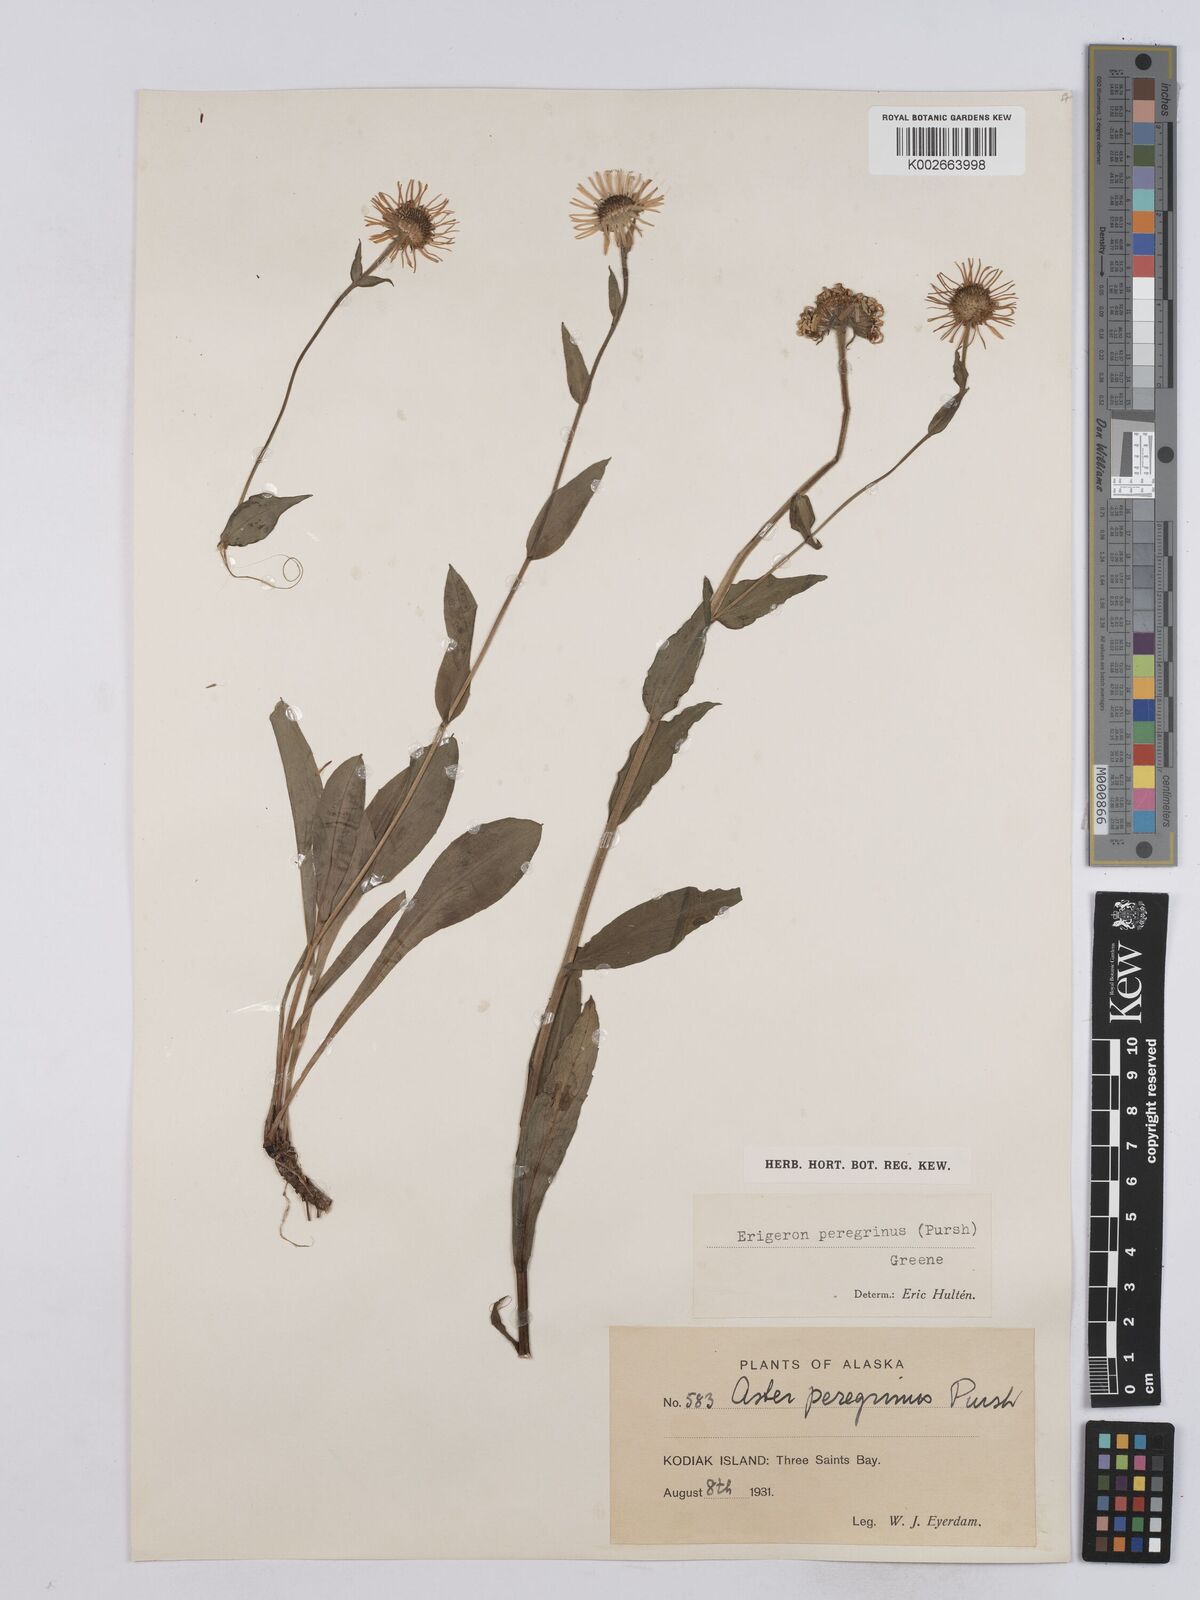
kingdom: Plantae
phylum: Tracheophyta
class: Magnoliopsida
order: Asterales
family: Asteraceae
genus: Erigeron
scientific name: Erigeron peregrinus
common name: Peregrine fleabane
